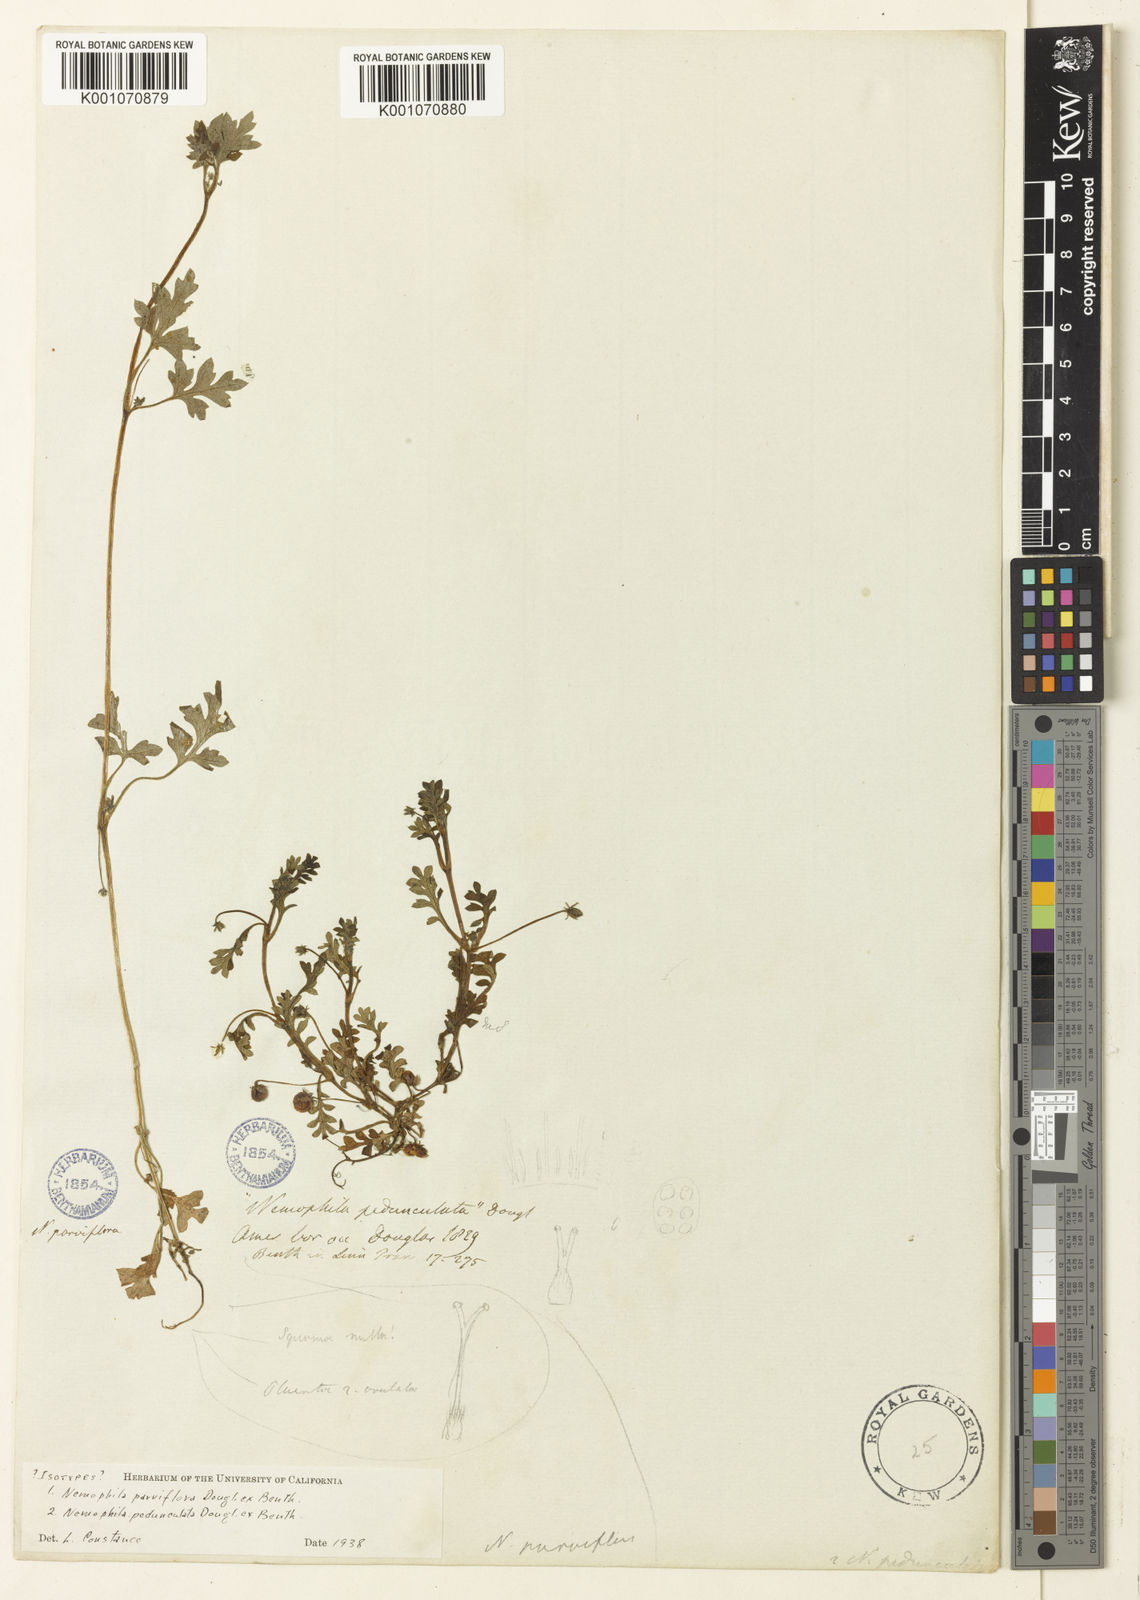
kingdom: Plantae
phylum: Tracheophyta
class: Magnoliopsida
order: Boraginales
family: Hydrophyllaceae
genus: Nemophila
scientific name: Nemophila parviflora
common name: Small-flowered baby-blue-eyes
